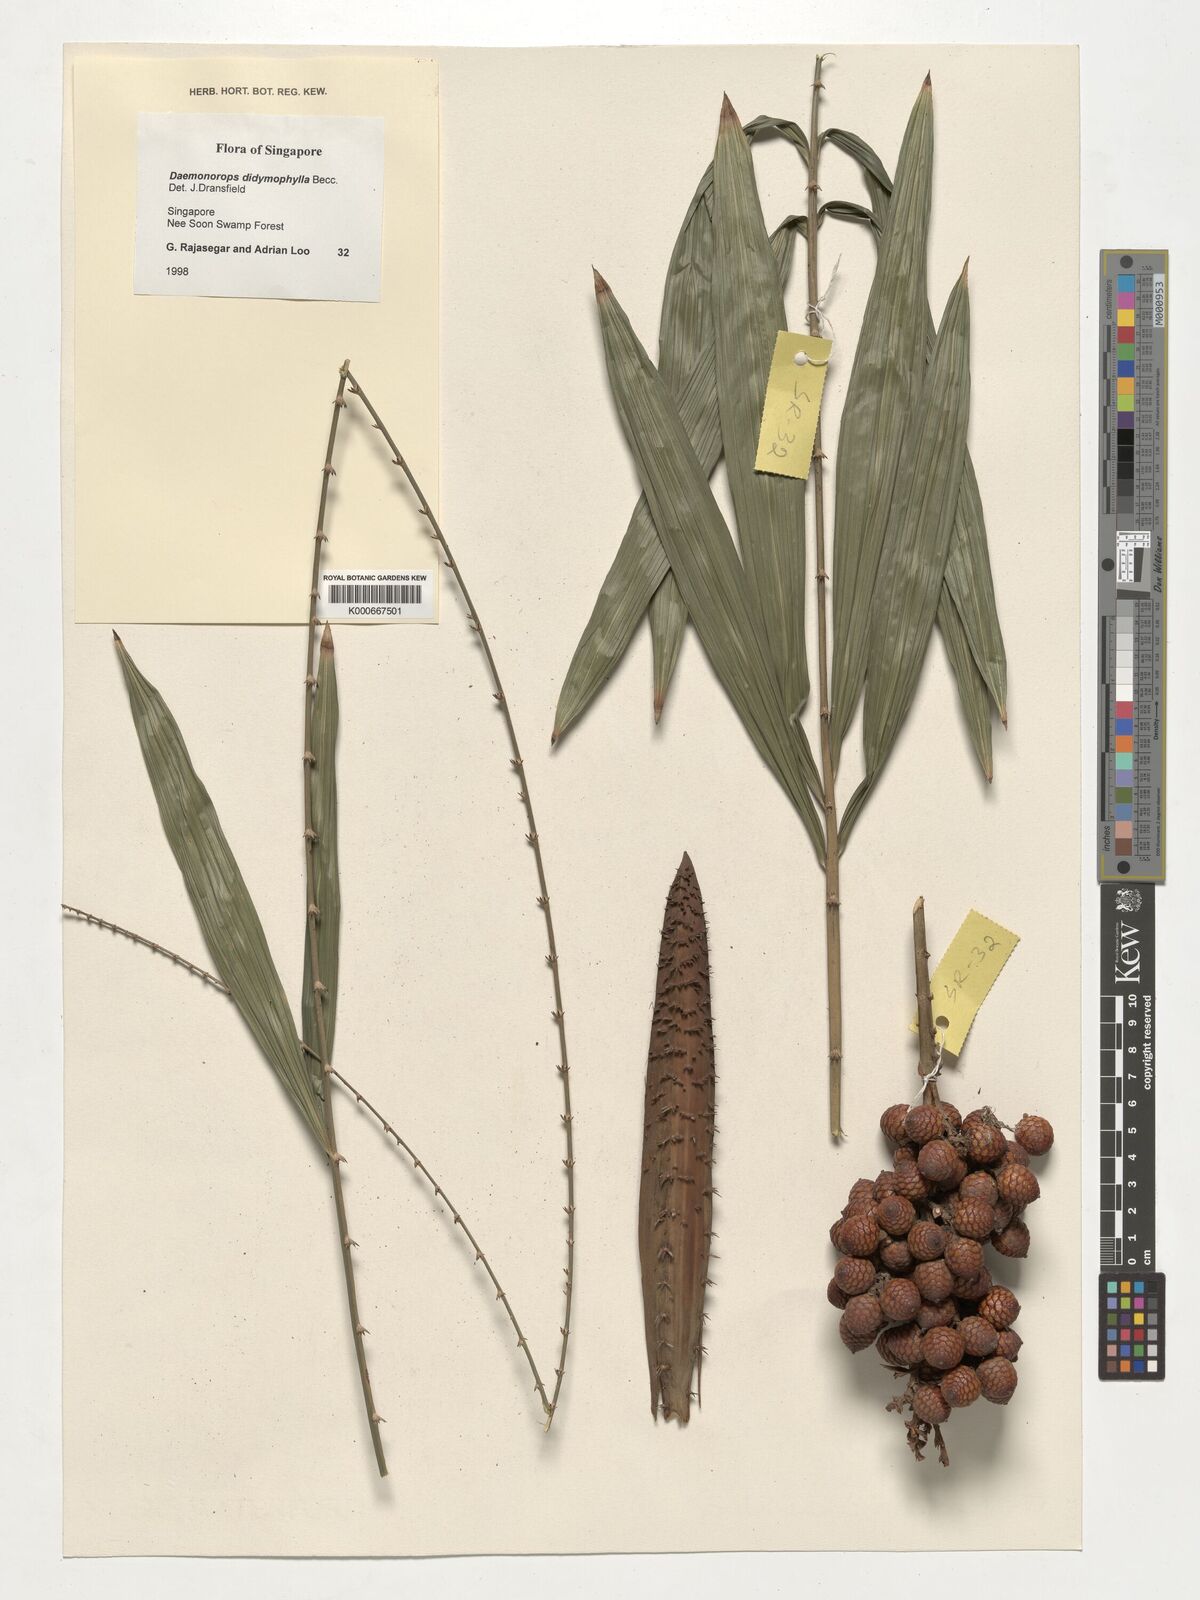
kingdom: Plantae
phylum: Tracheophyta
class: Liliopsida
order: Arecales
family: Arecaceae
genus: Calamus
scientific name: Calamus gracilipes
